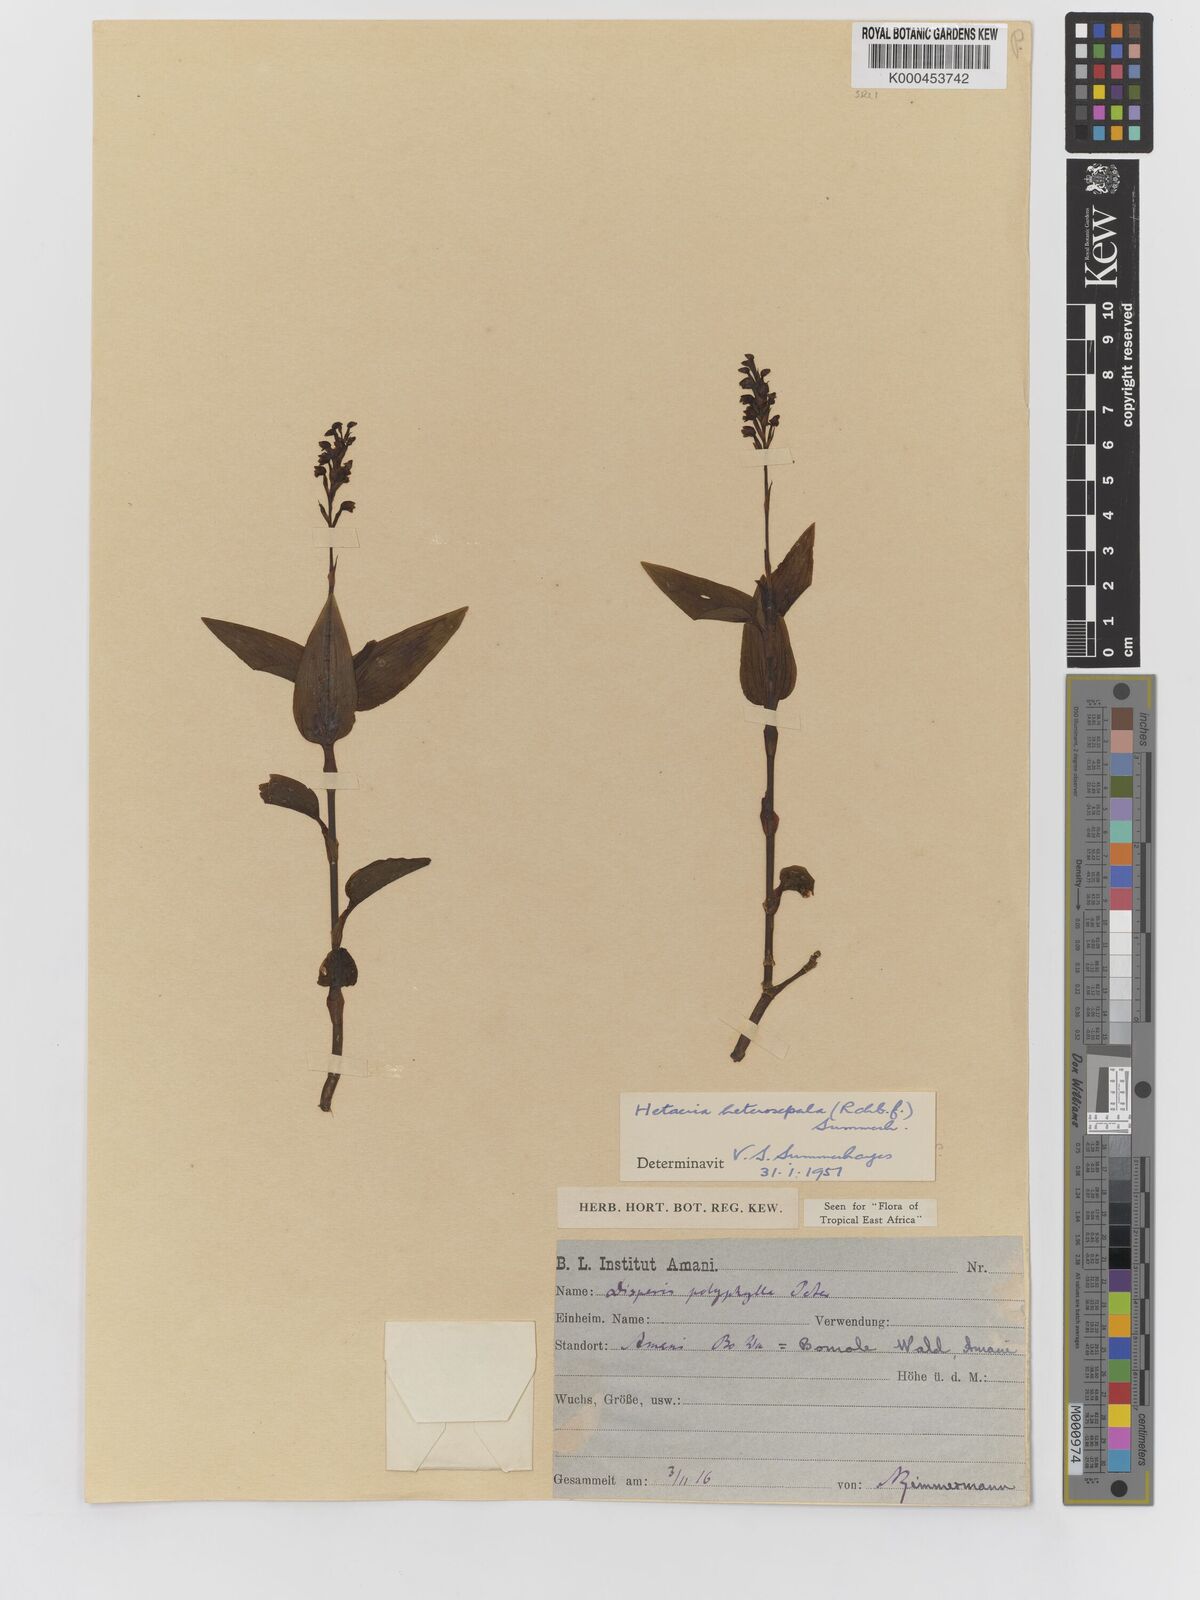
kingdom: Plantae
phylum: Tracheophyta
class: Liliopsida
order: Asparagales
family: Orchidaceae
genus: Hetaeria
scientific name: Hetaeria heterosepala
